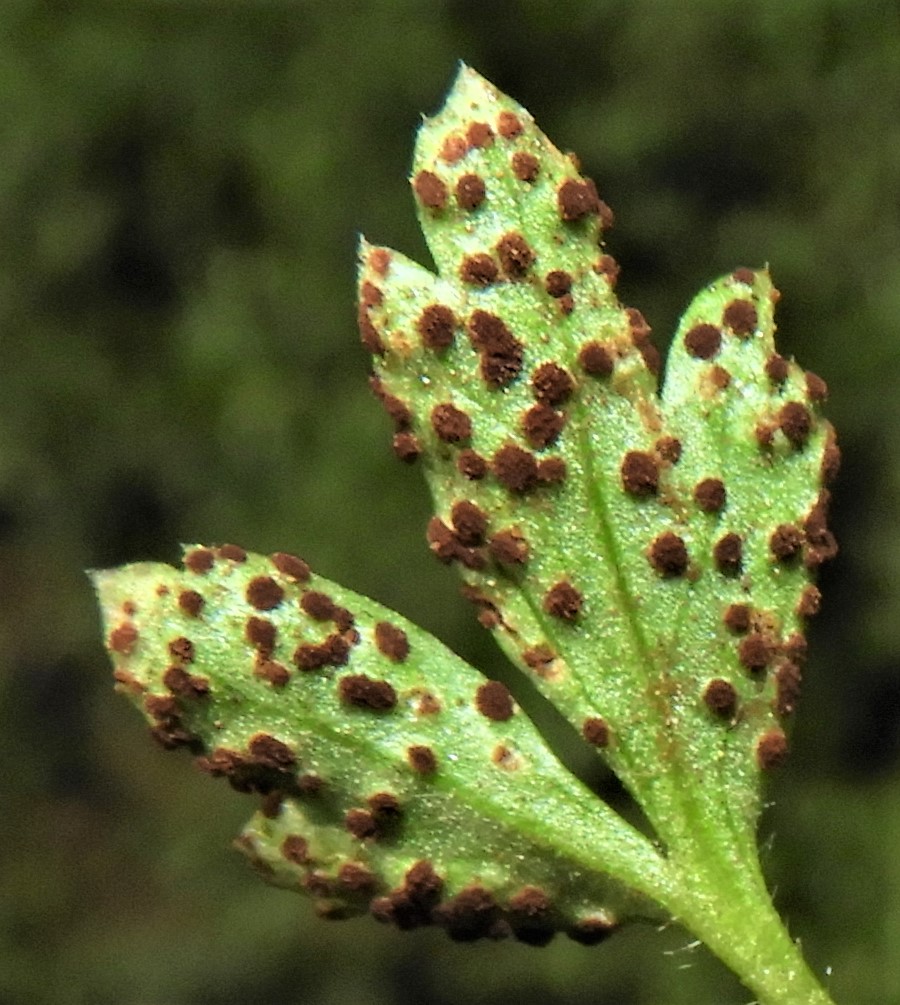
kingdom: Fungi
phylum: Basidiomycota
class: Pucciniomycetes
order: Pucciniales
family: Tranzscheliaceae
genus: Tranzschelia
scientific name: Tranzschelia anemones
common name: anemone-knæksporerust
